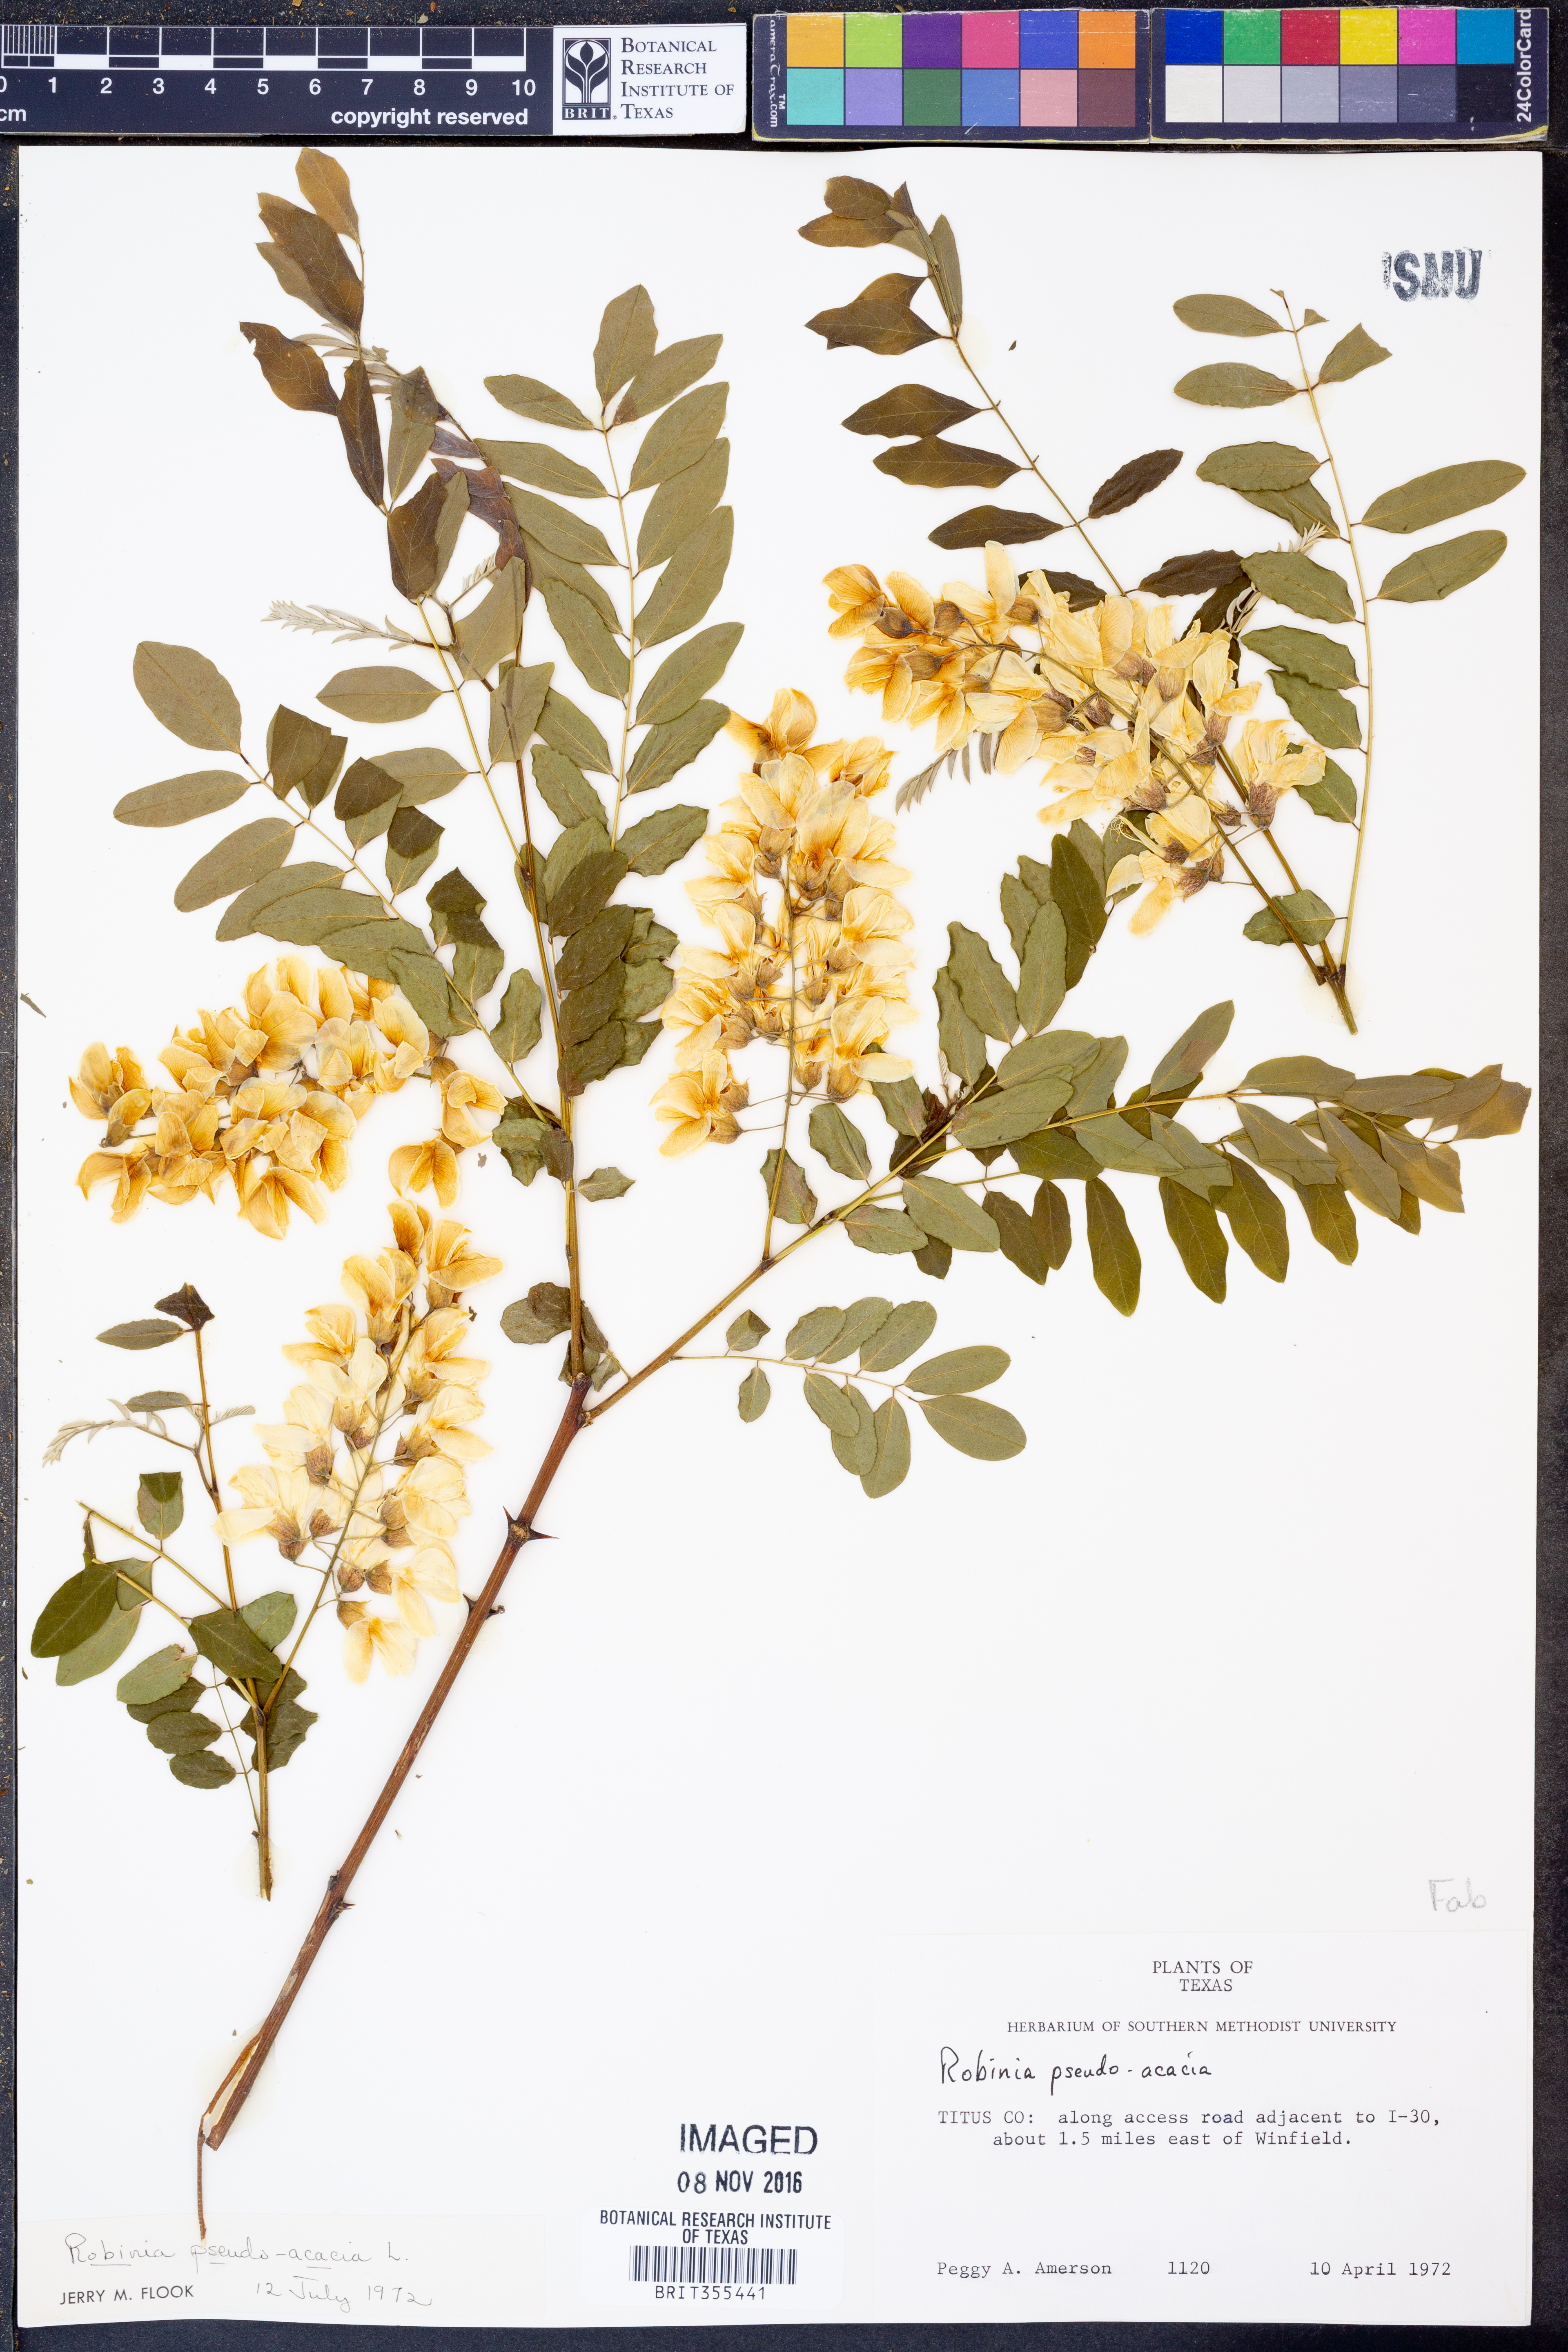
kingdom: Plantae
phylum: Tracheophyta
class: Magnoliopsida
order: Fabales
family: Fabaceae
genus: Robinia
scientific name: Robinia pseudoacacia
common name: Black locust
